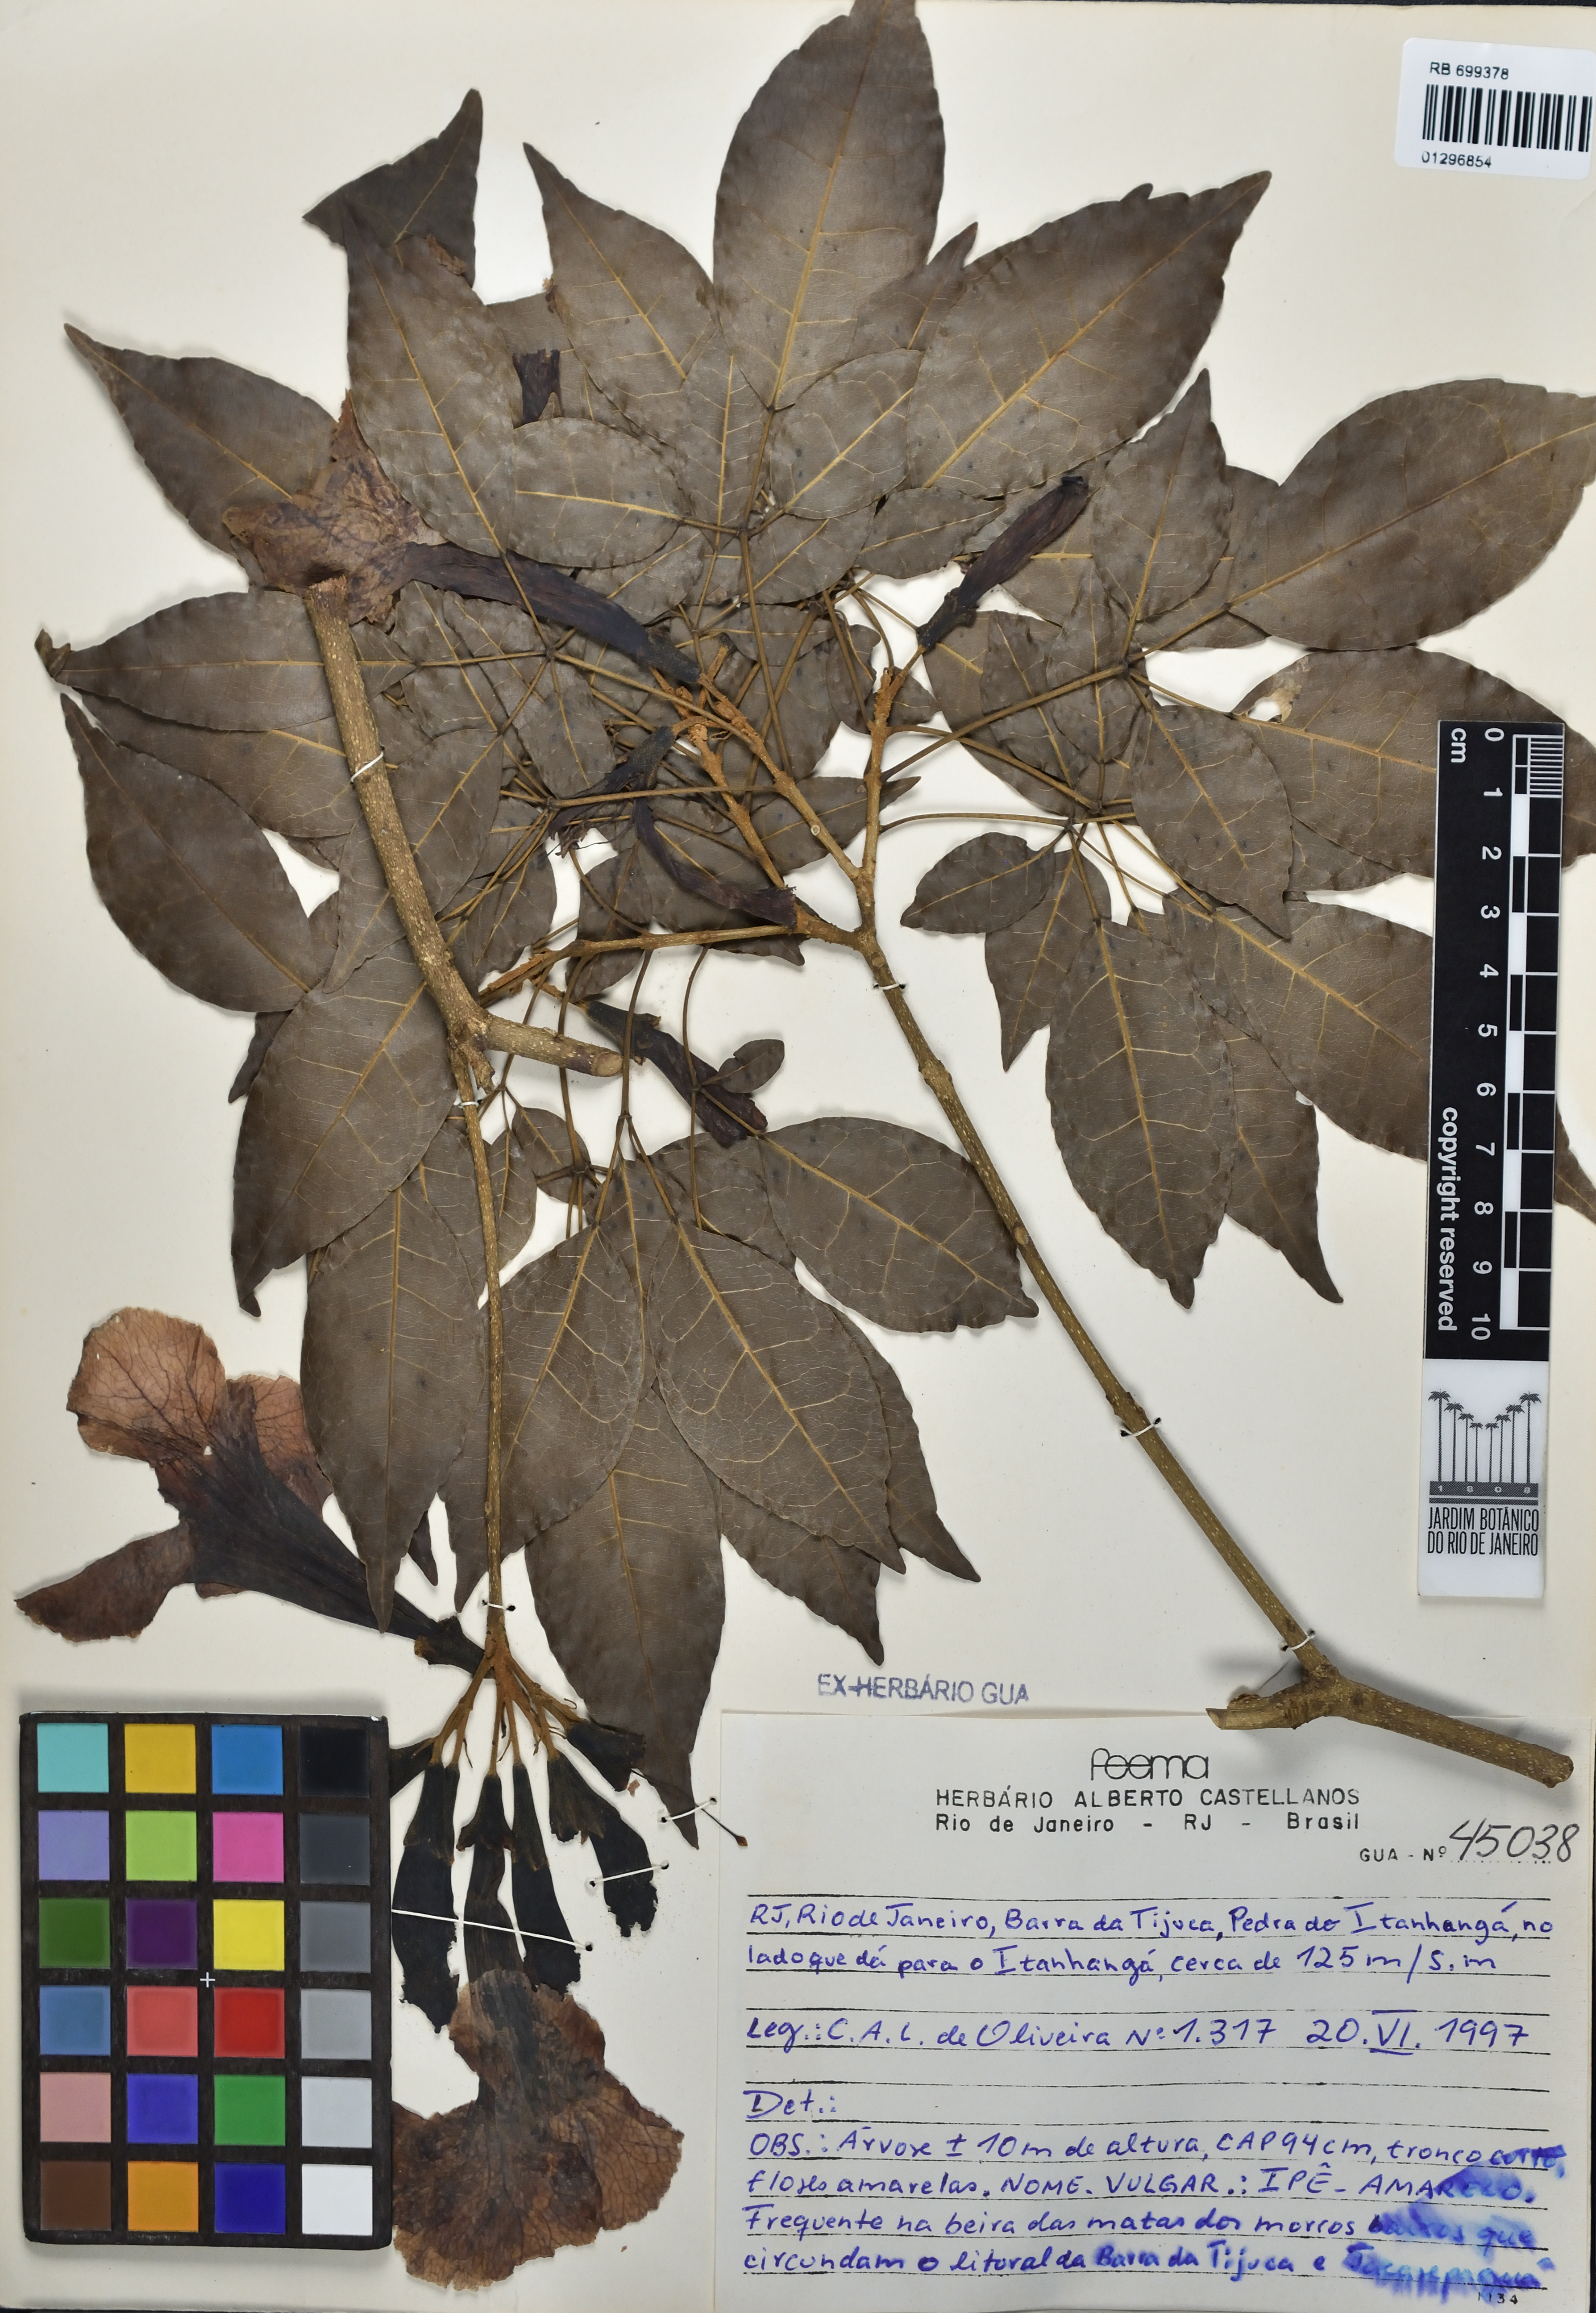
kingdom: Plantae
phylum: Tracheophyta
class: Magnoliopsida
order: Lamiales
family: Bignoniaceae
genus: Handroanthus
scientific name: Handroanthus
